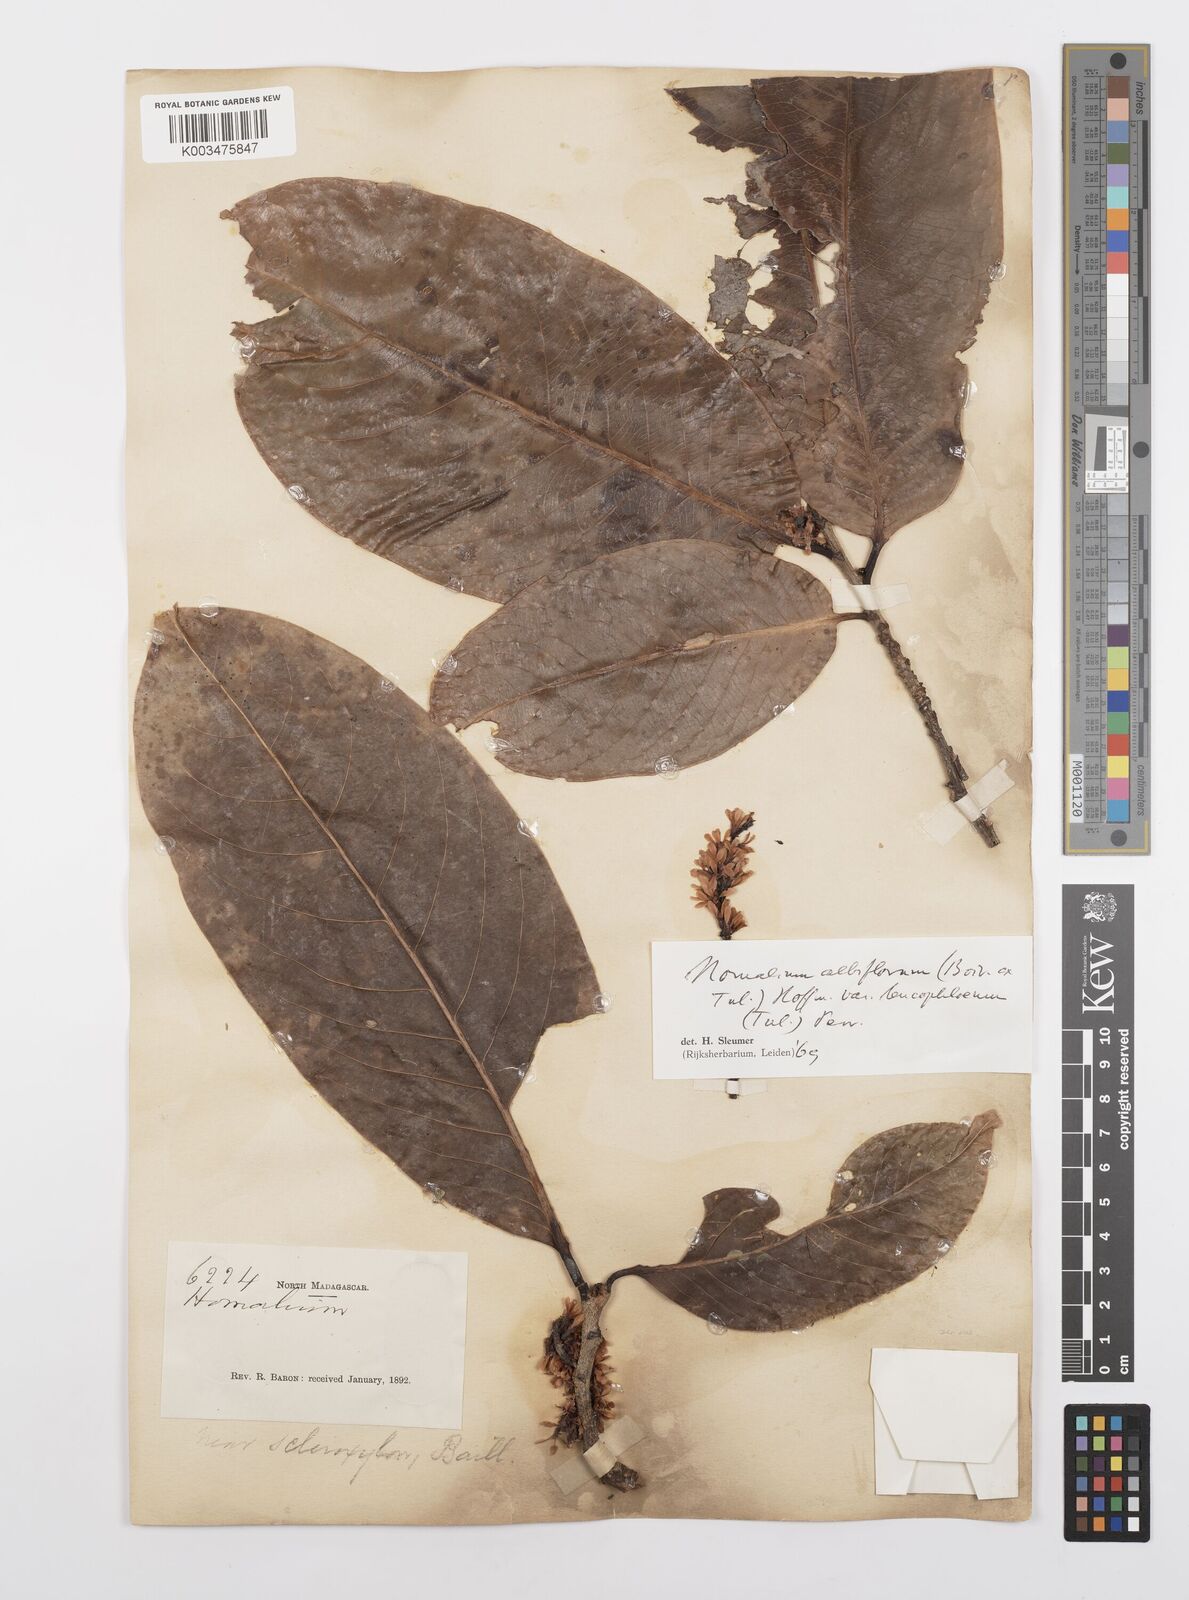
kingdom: Plantae
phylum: Tracheophyta
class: Magnoliopsida
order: Malpighiales
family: Salicaceae
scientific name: Salicaceae
